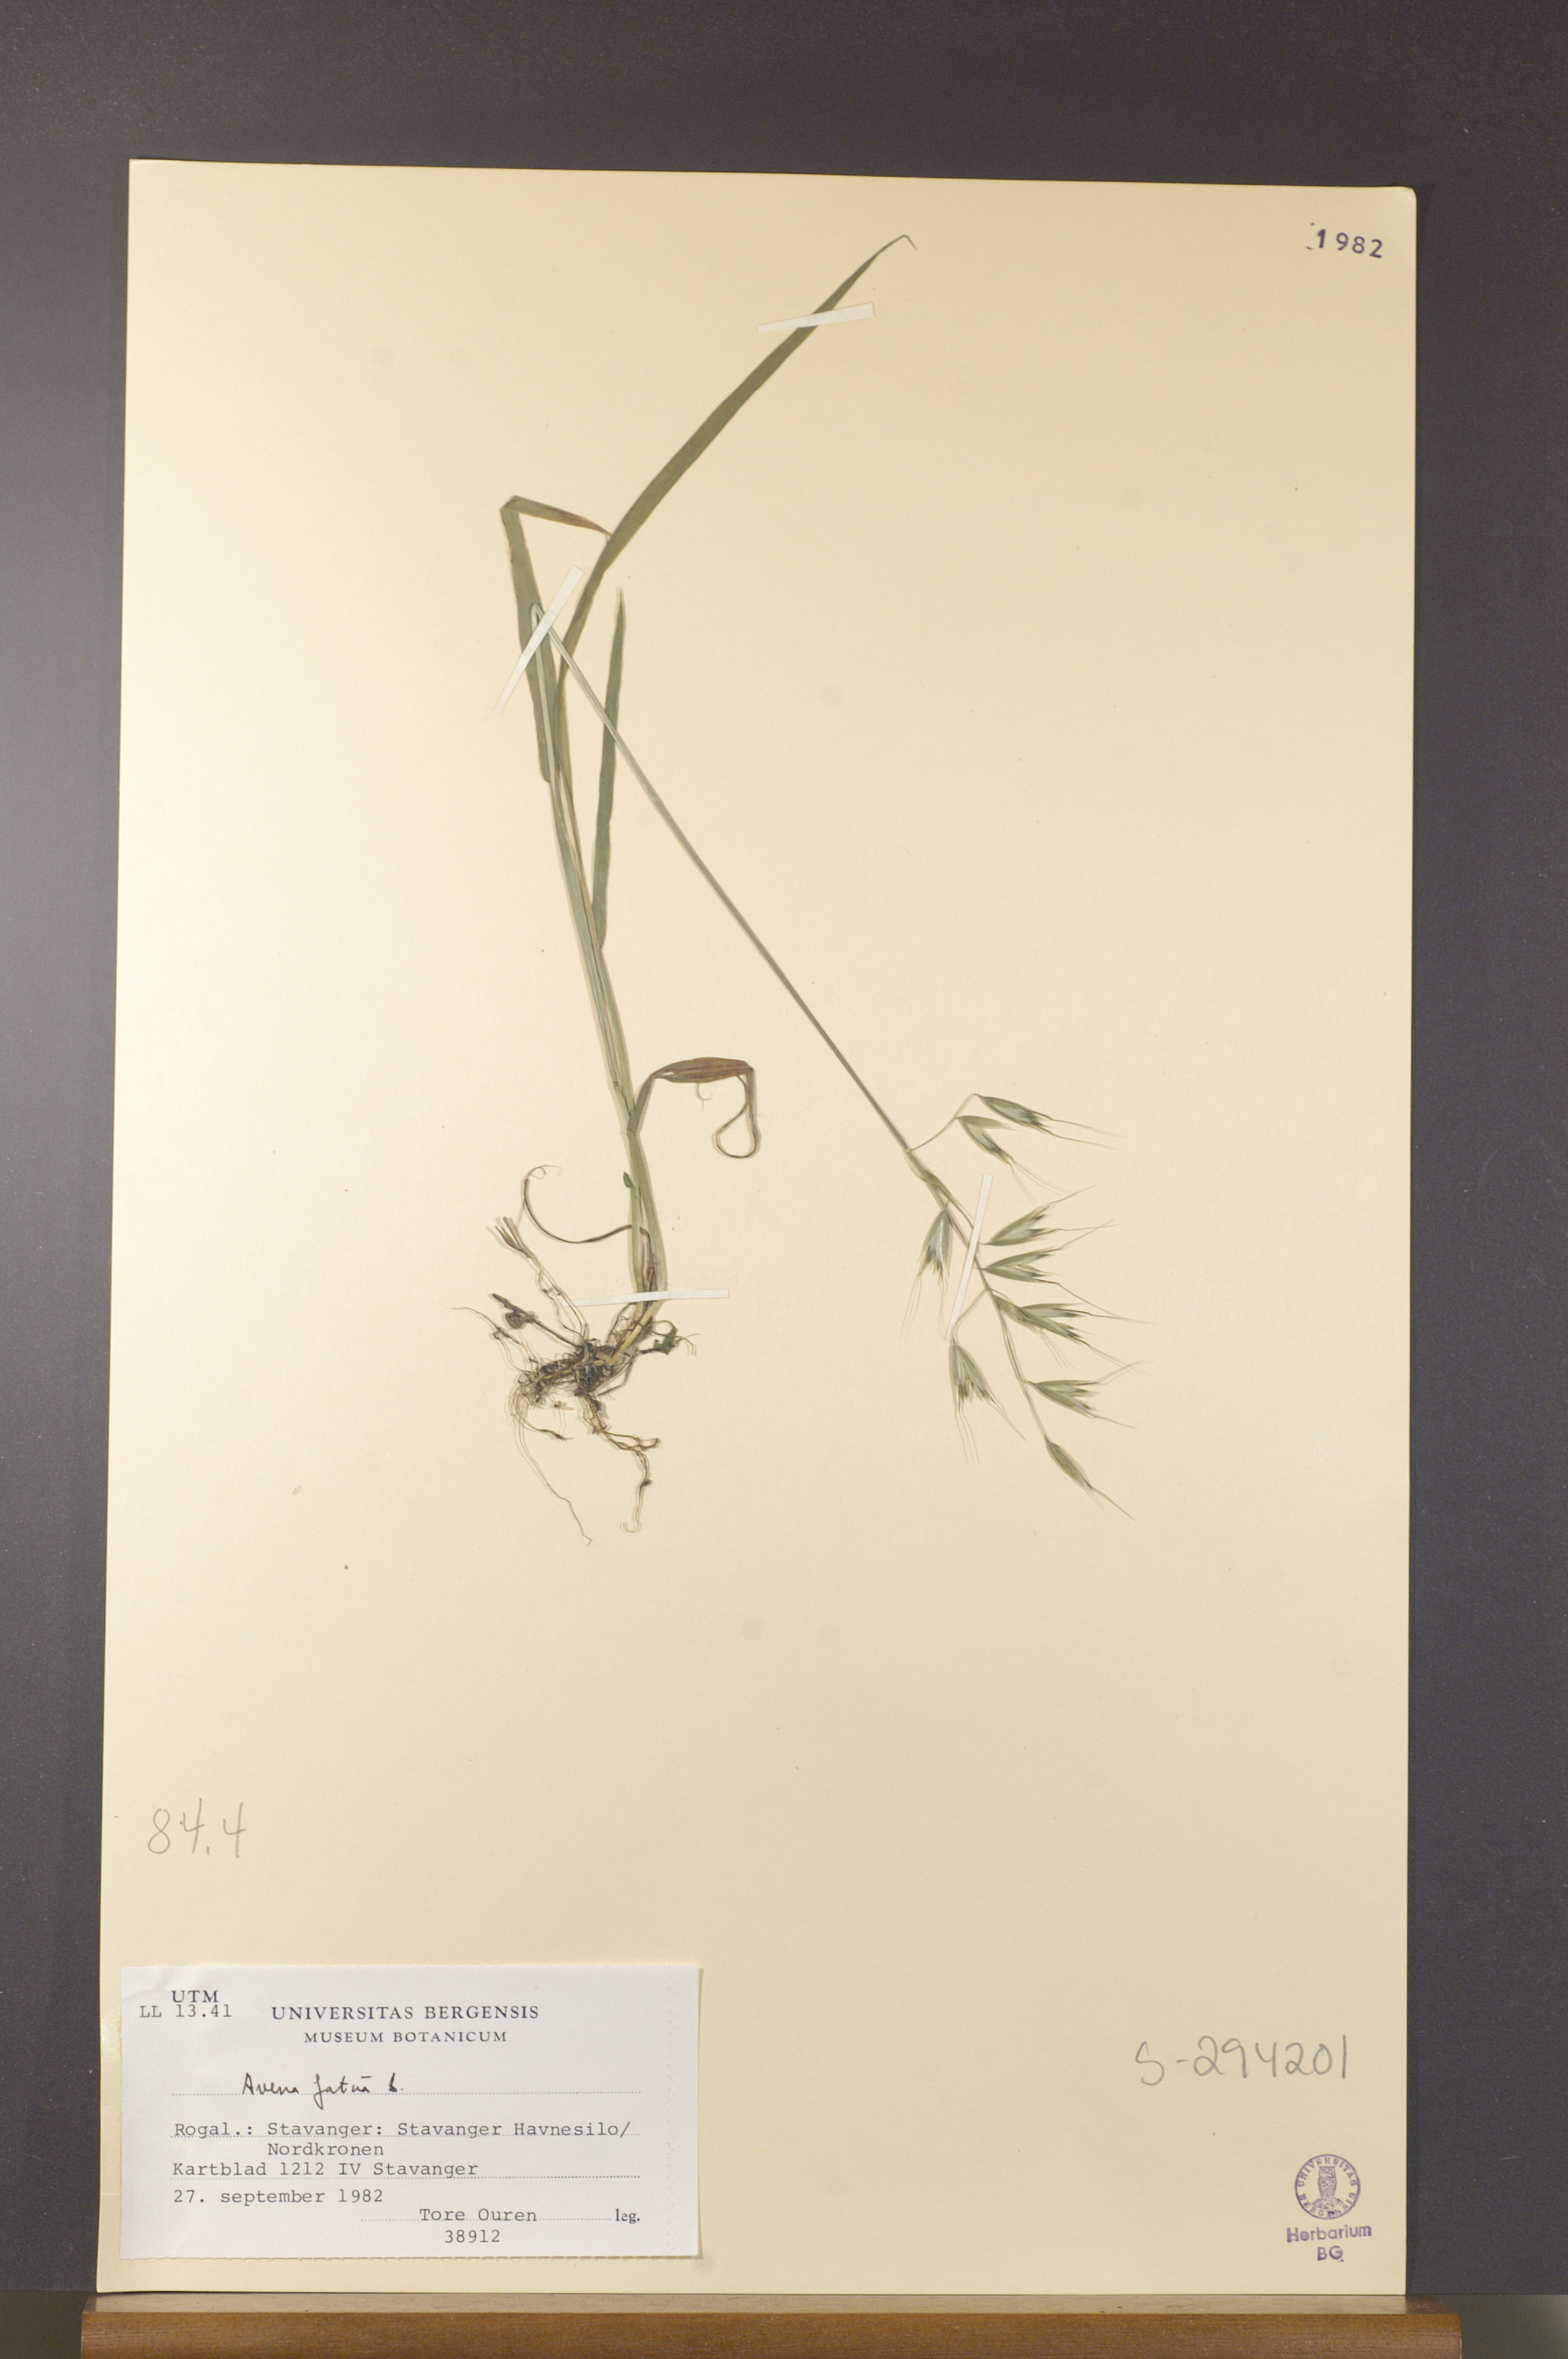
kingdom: Plantae
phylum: Tracheophyta
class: Liliopsida
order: Poales
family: Poaceae
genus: Avena
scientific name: Avena fatua
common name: Wild oat
